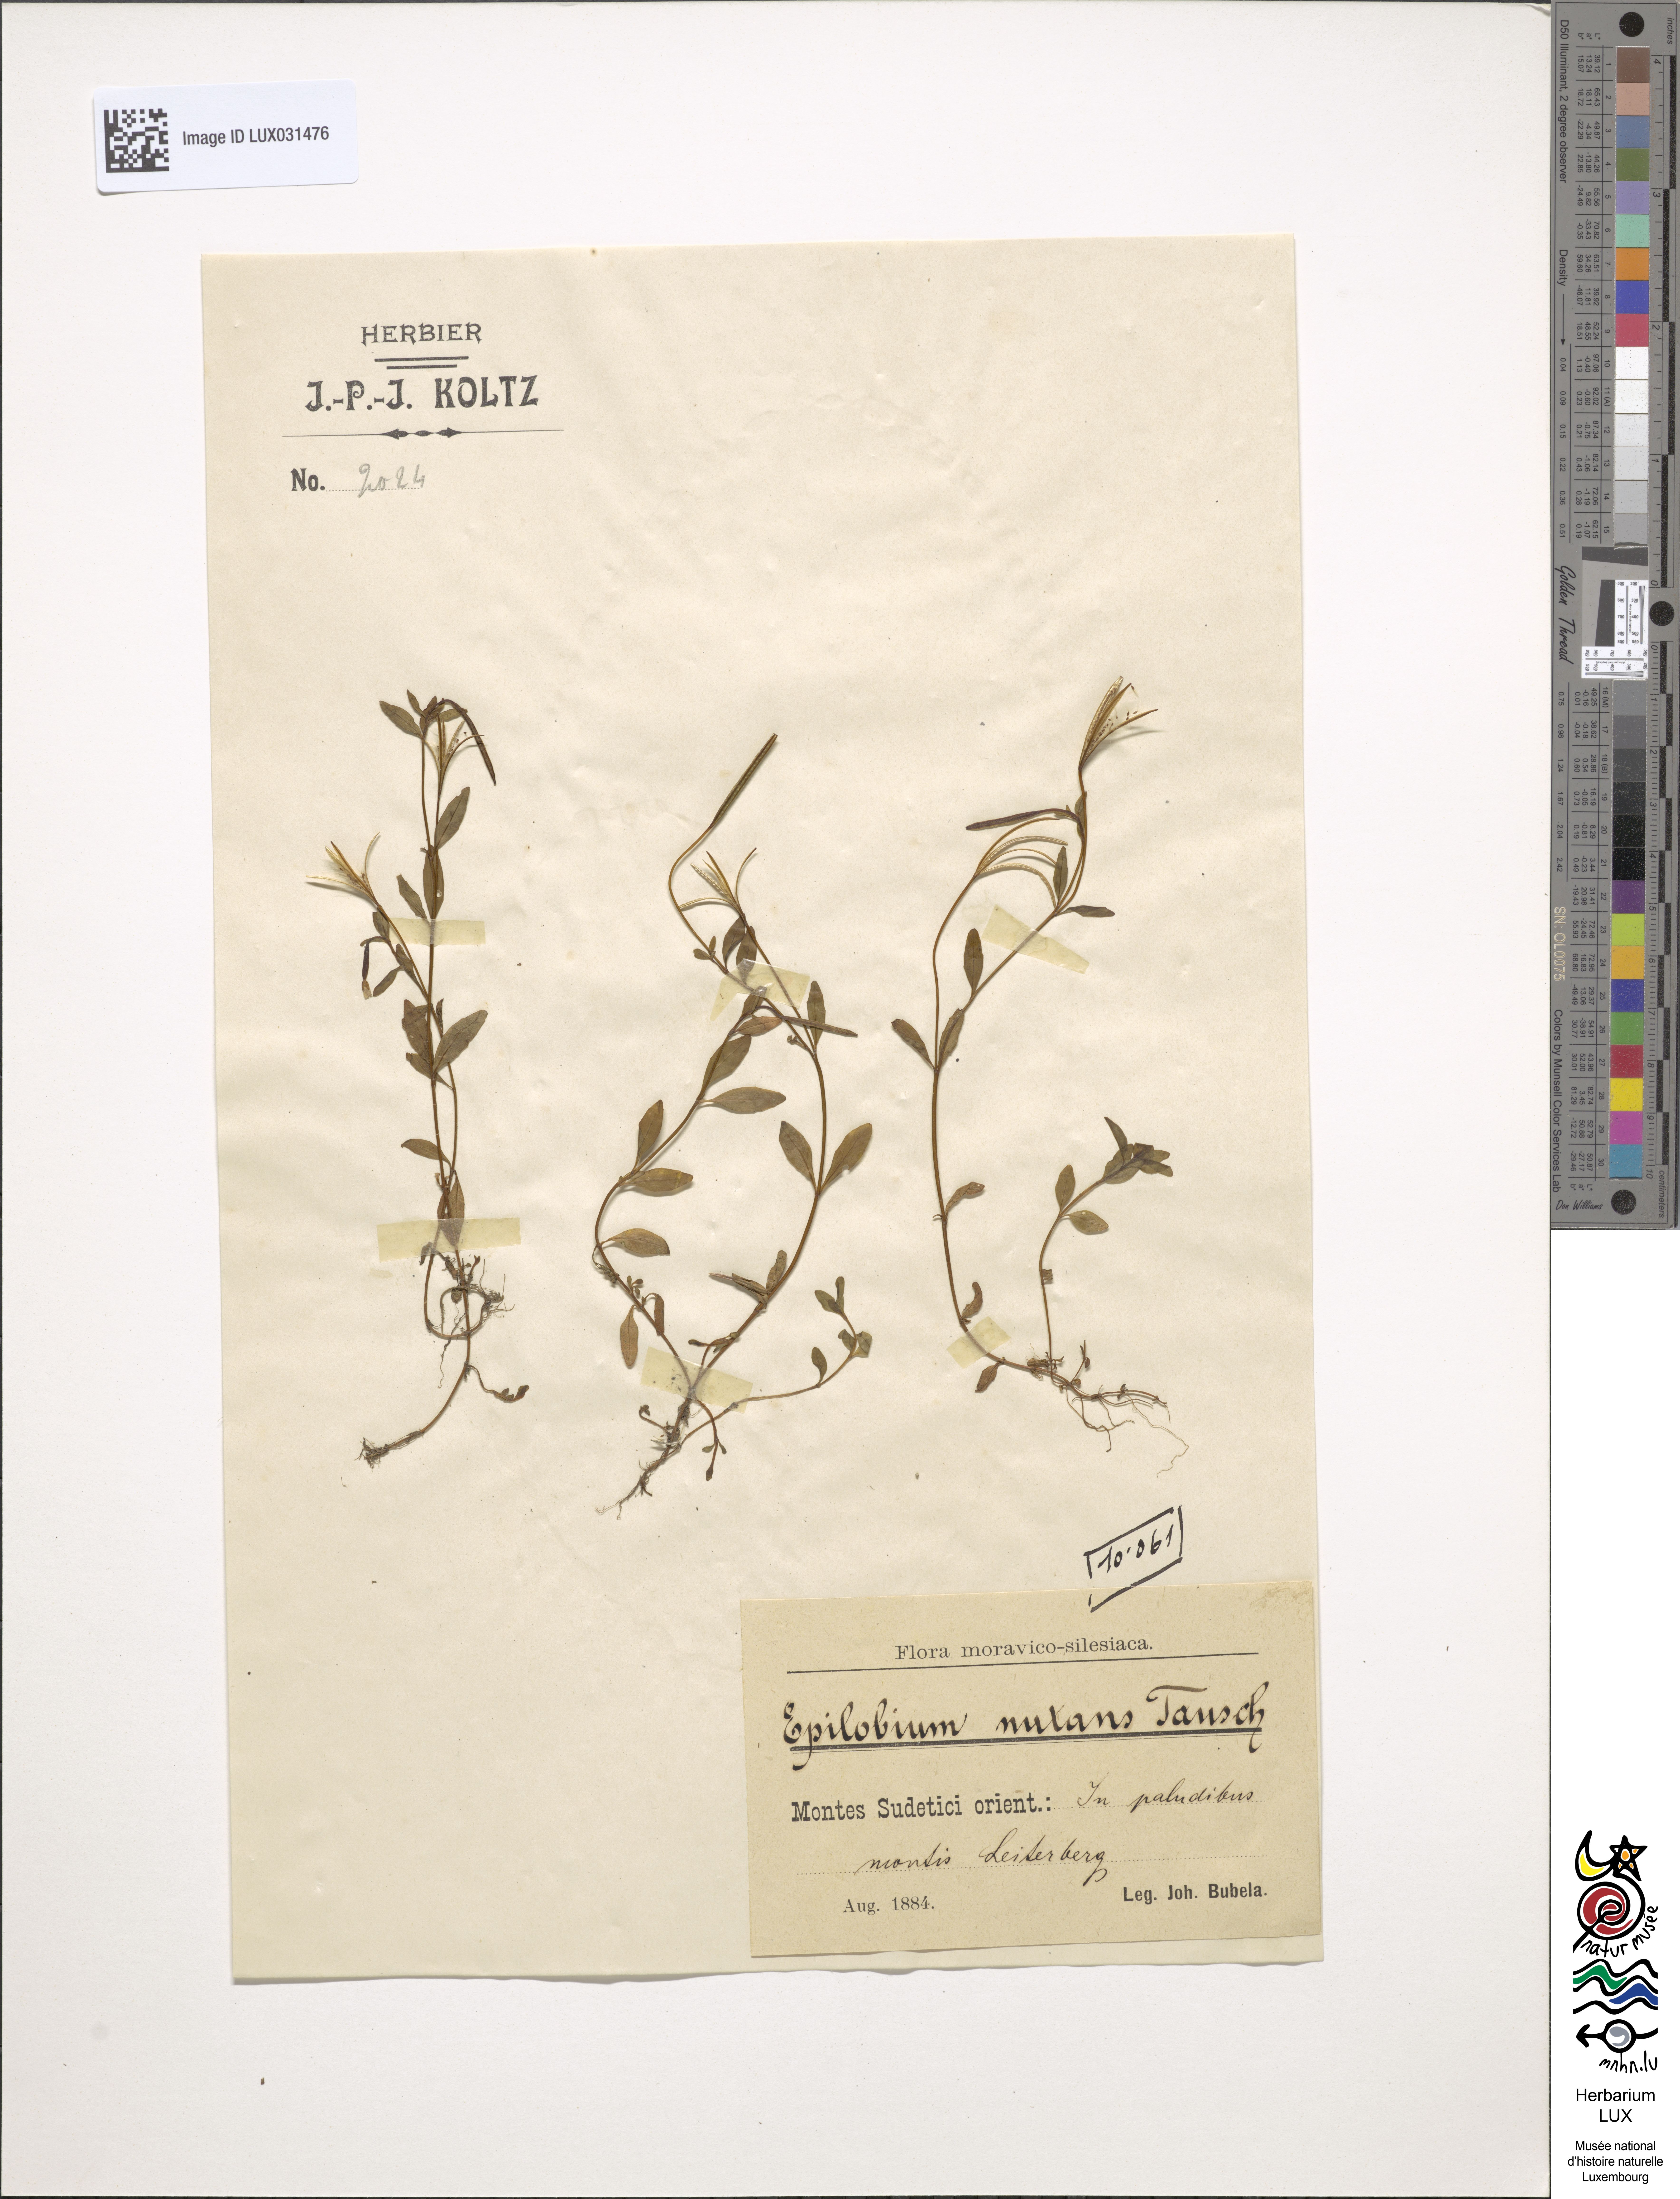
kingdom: Plantae
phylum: Tracheophyta
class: Magnoliopsida
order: Myrtales
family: Onagraceae
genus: Epilobium
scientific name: Epilobium nutans
